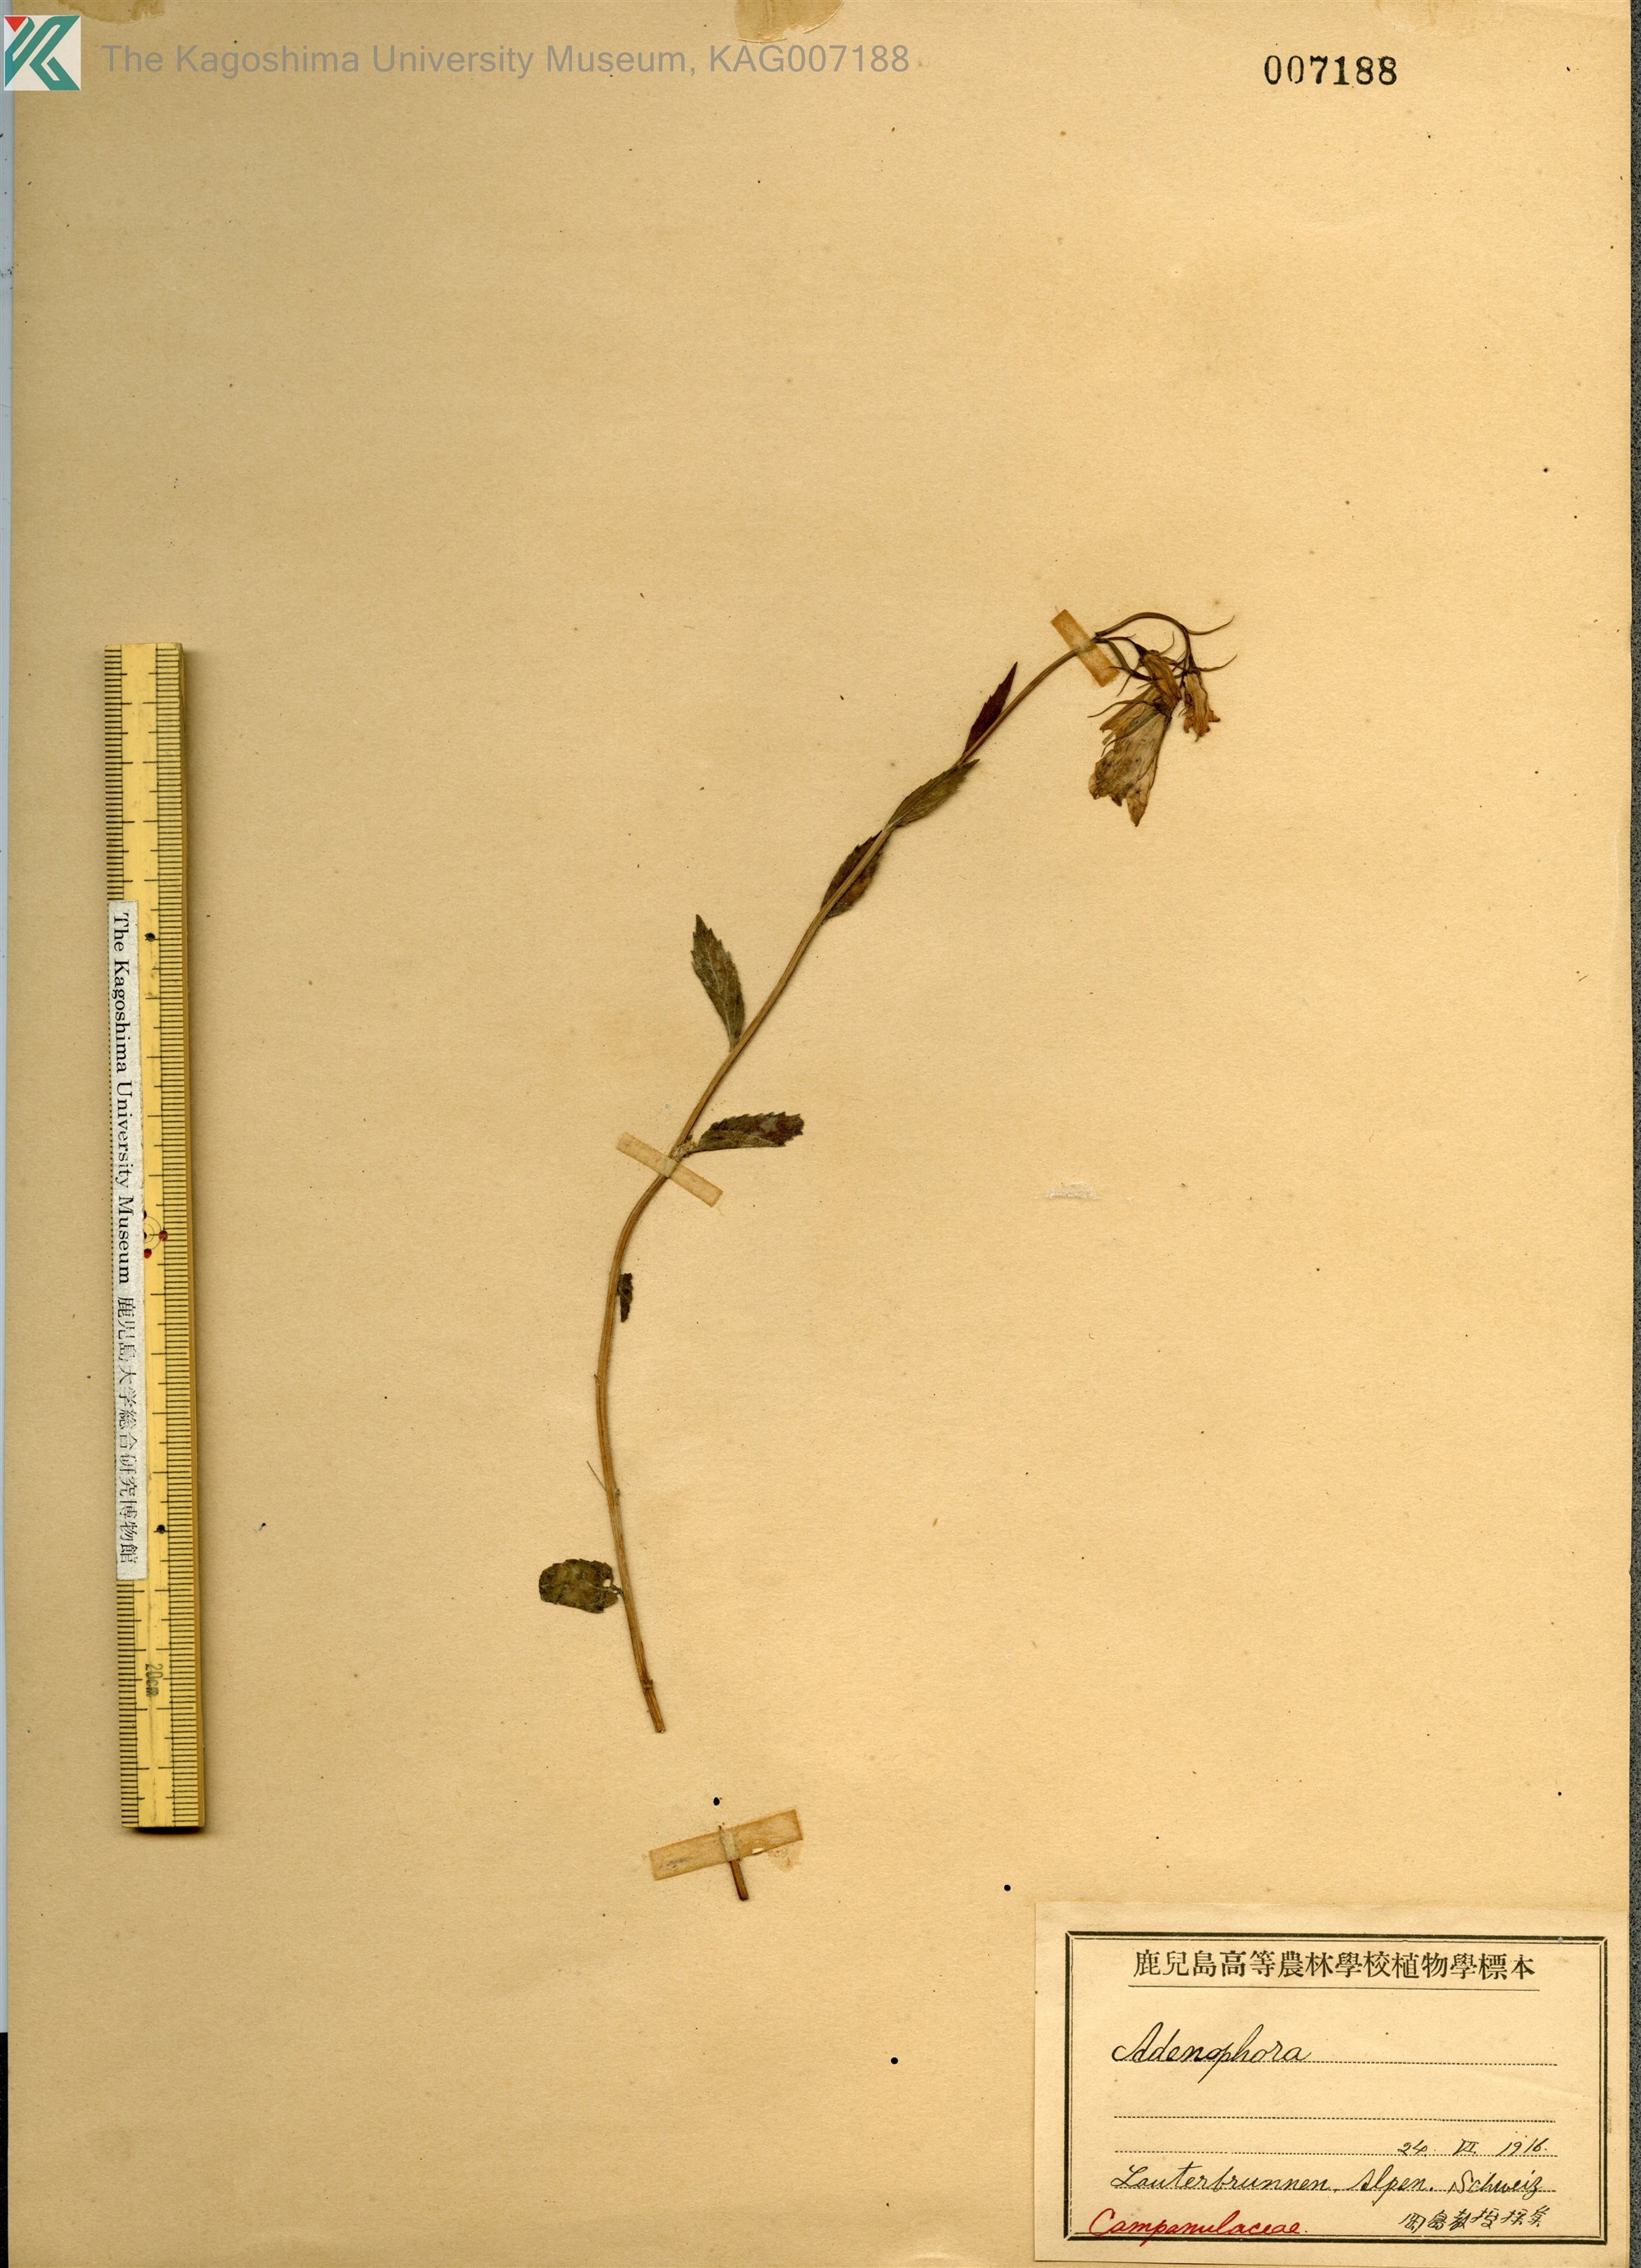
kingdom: Plantae
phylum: Tracheophyta
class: Magnoliopsida
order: Asterales
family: Campanulaceae
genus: Adenophora
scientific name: Adenophora triphylla
